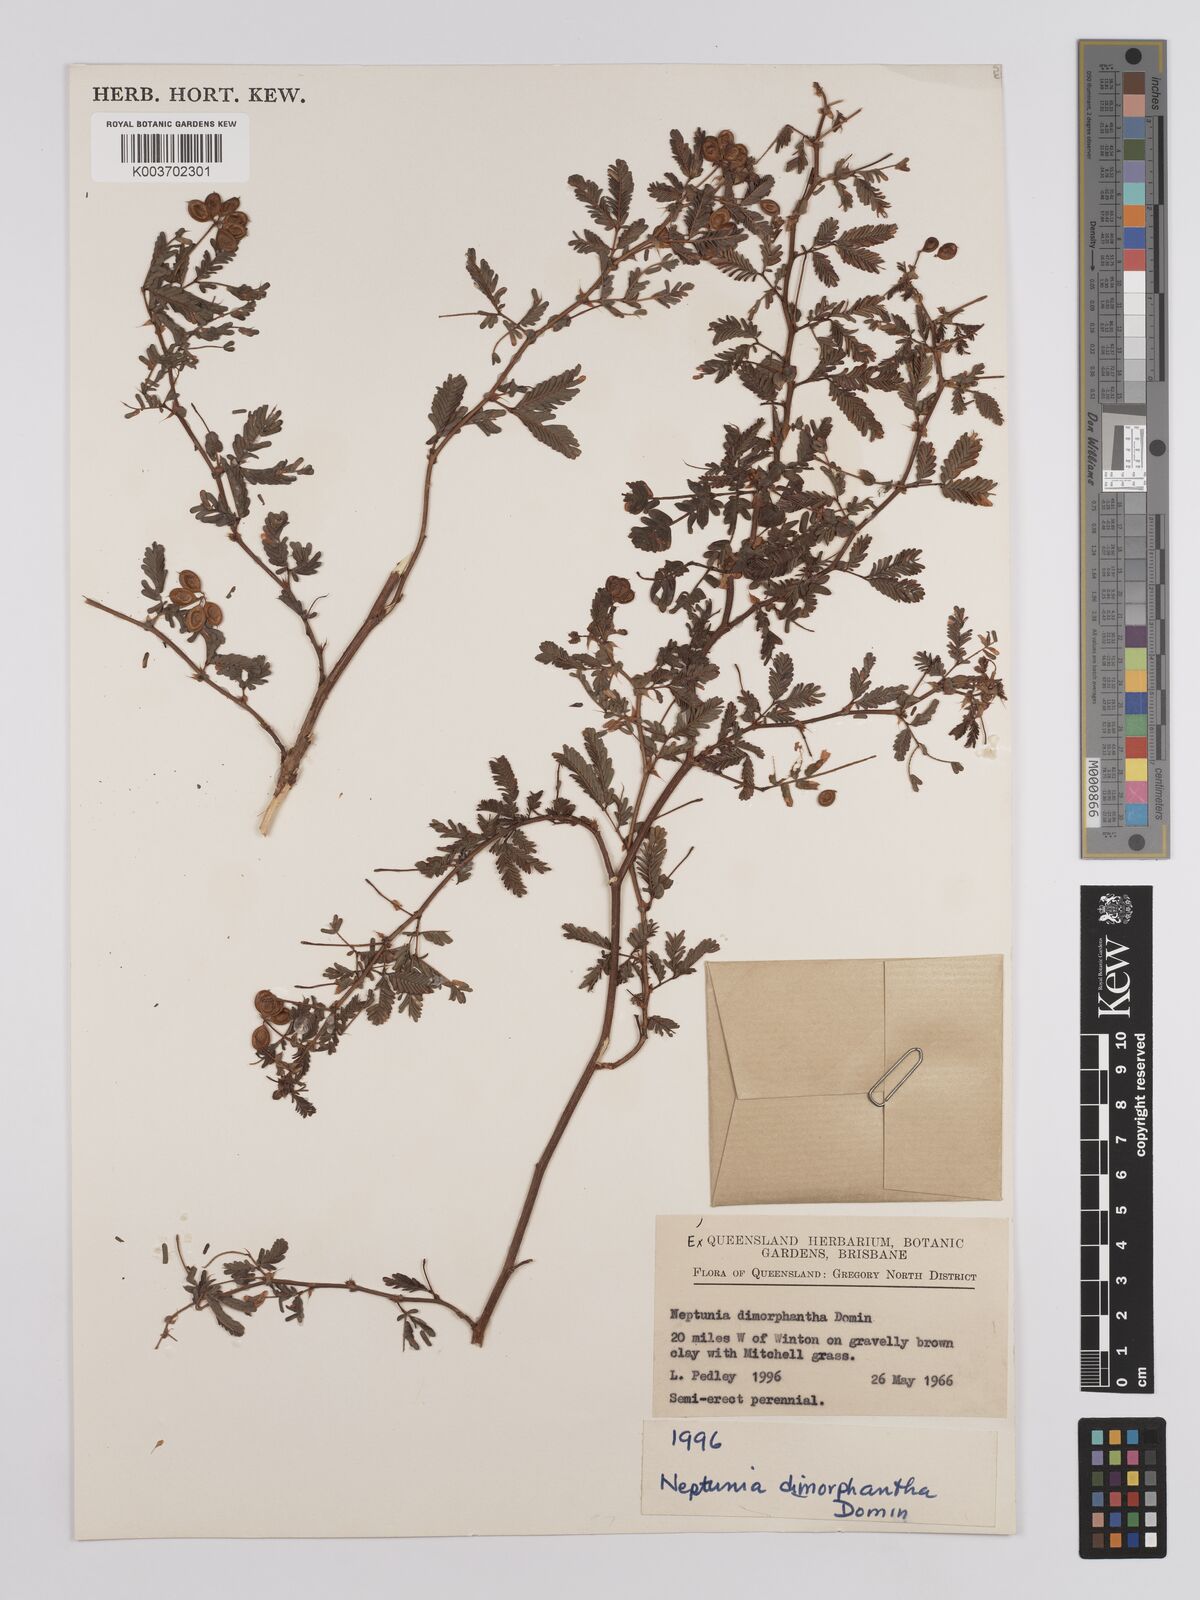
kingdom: Plantae
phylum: Tracheophyta
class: Magnoliopsida
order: Fabales
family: Fabaceae
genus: Neptunia
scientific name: Neptunia dimorphantha
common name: Sensitive-plant
